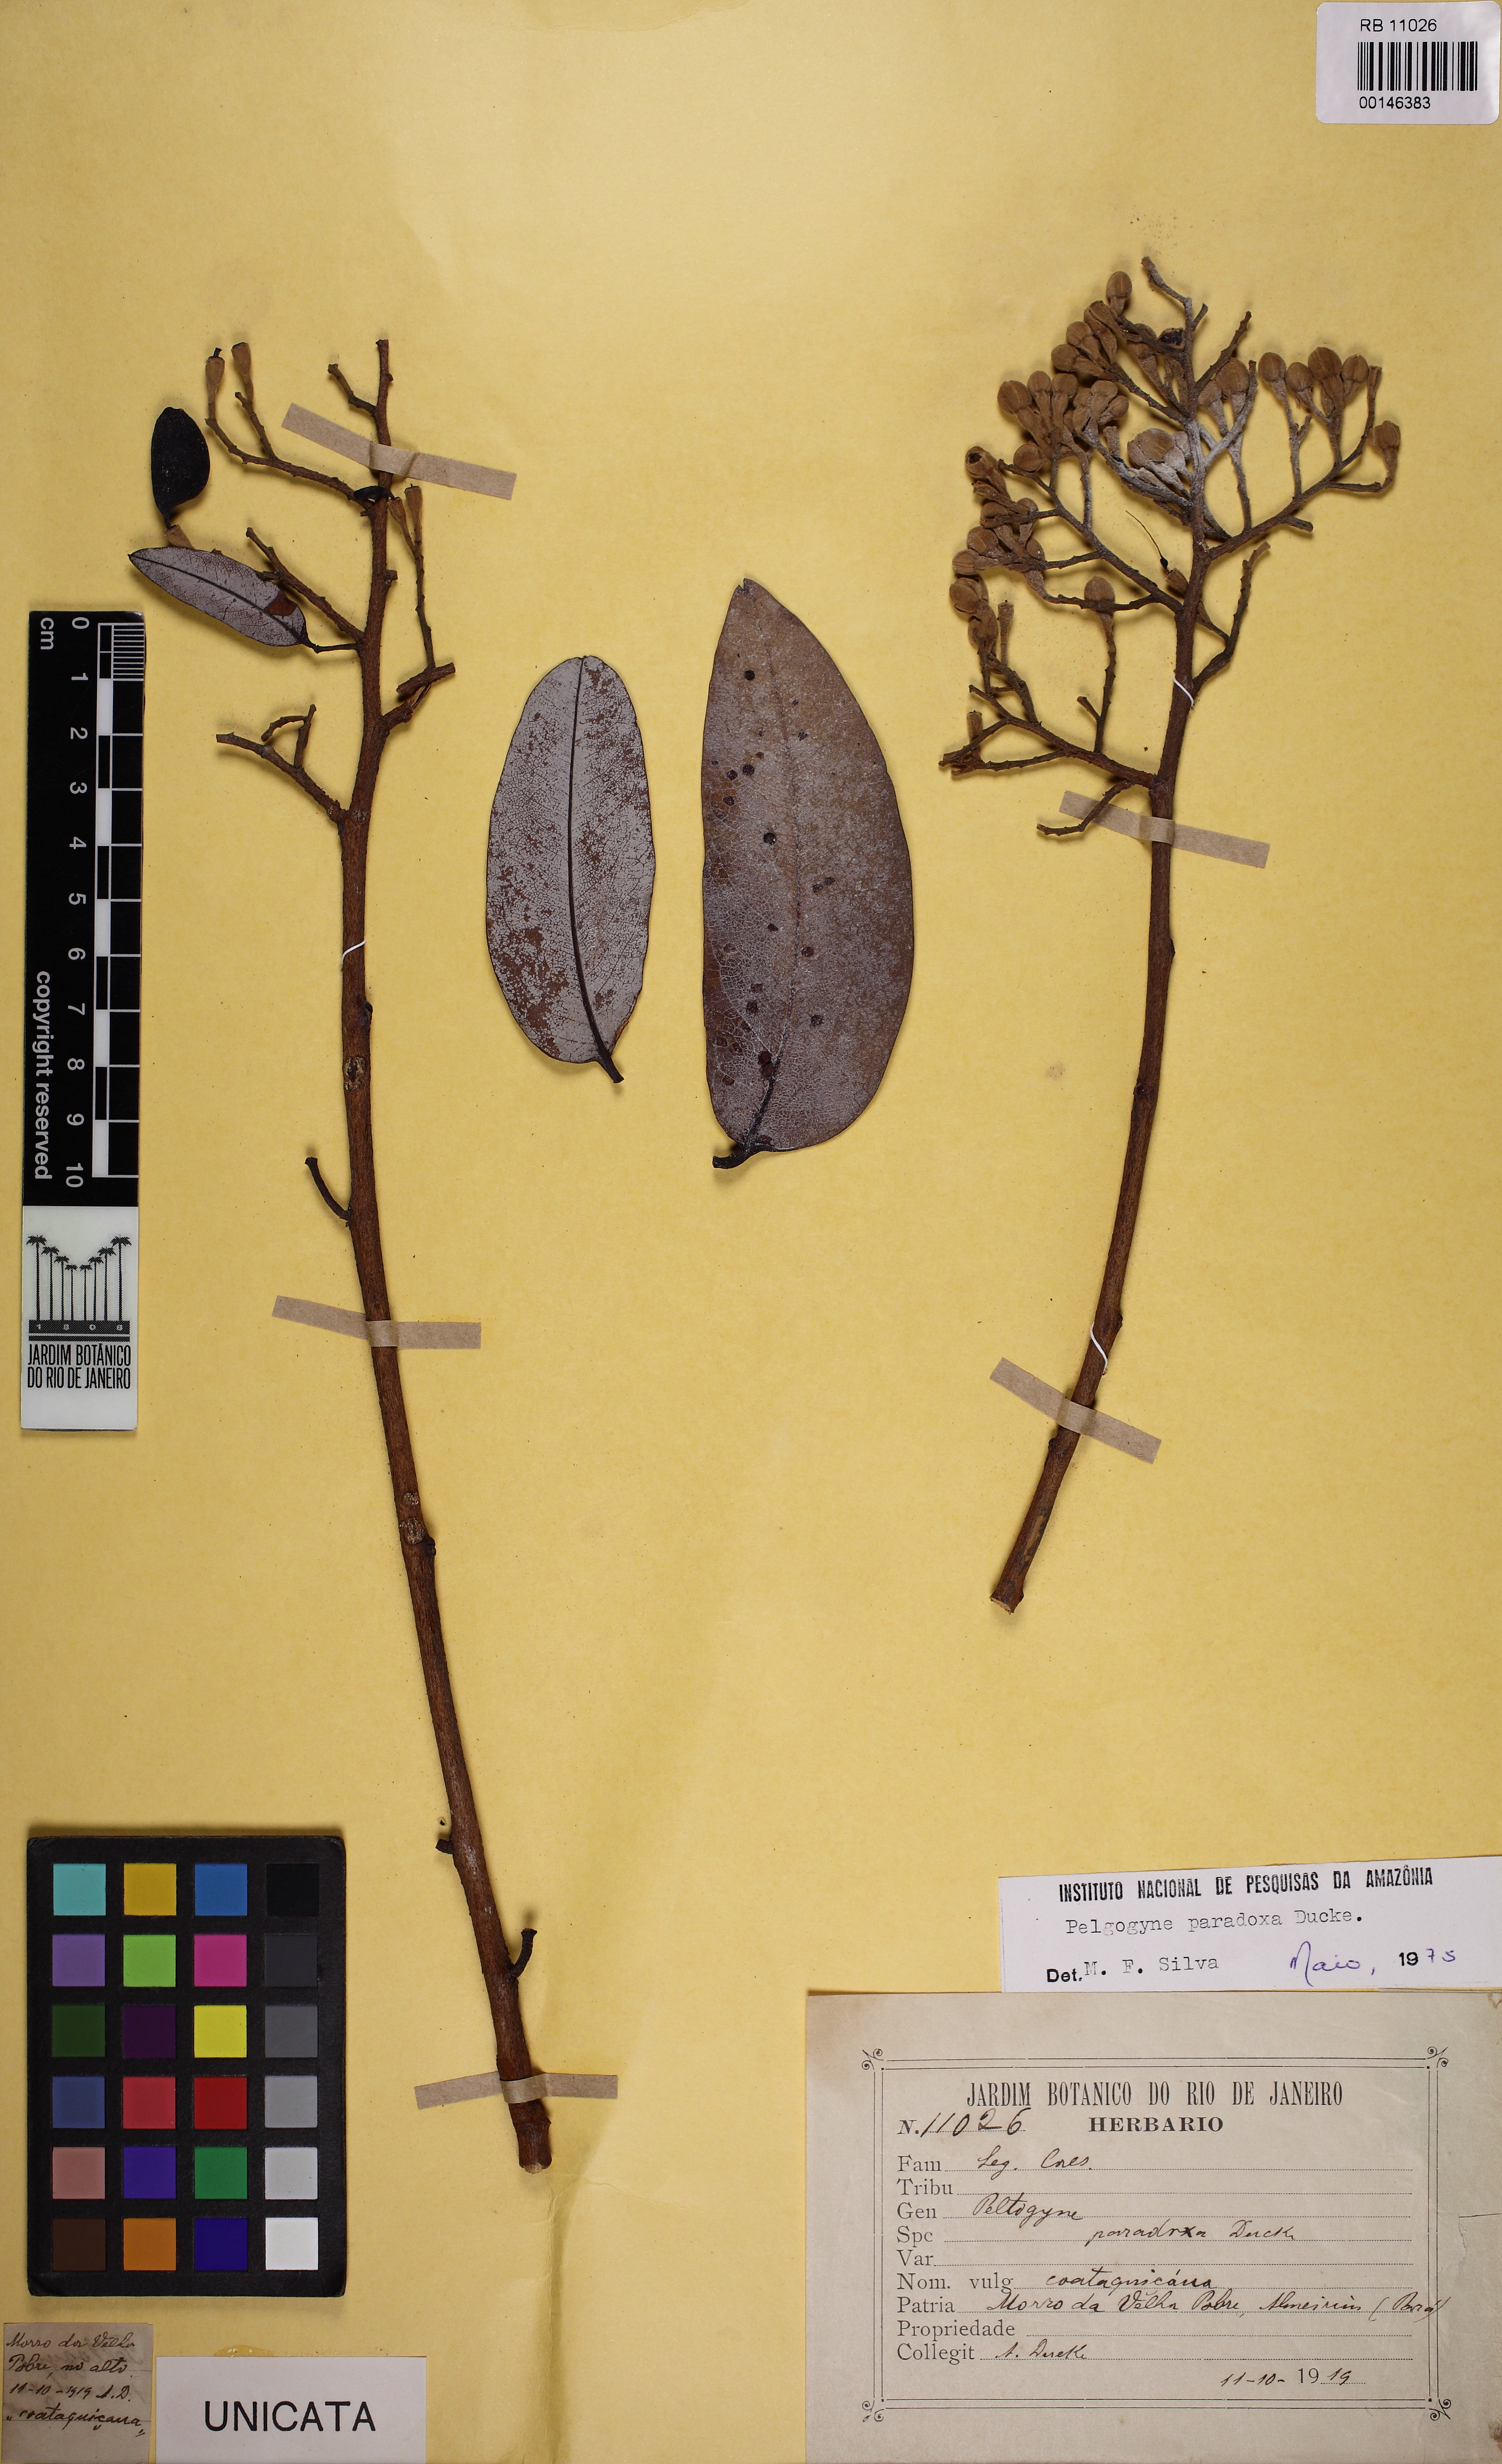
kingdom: Plantae
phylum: Tracheophyta
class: Magnoliopsida
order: Fabales
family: Fabaceae
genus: Peltogyne
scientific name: Peltogyne paradoxa
